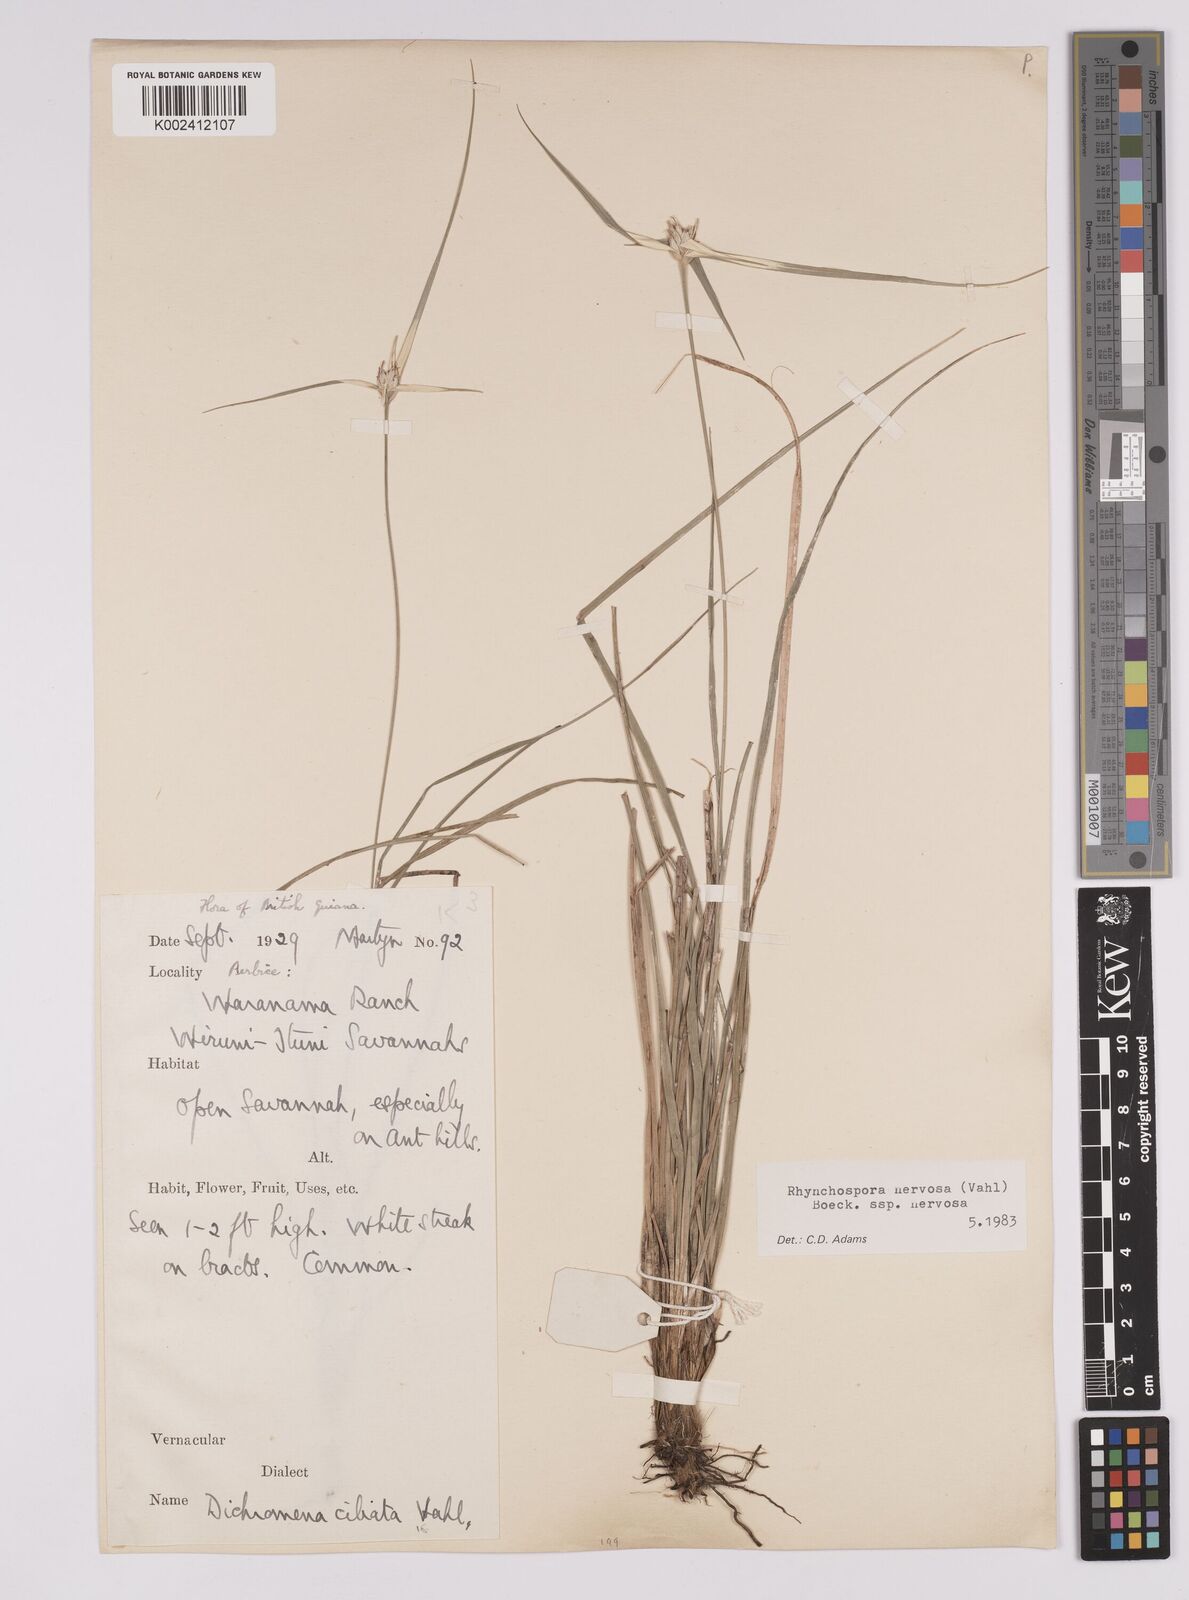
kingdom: Plantae
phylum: Tracheophyta
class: Liliopsida
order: Poales
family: Cyperaceae
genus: Rhynchospora
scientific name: Rhynchospora nervosa
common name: Star sedge
